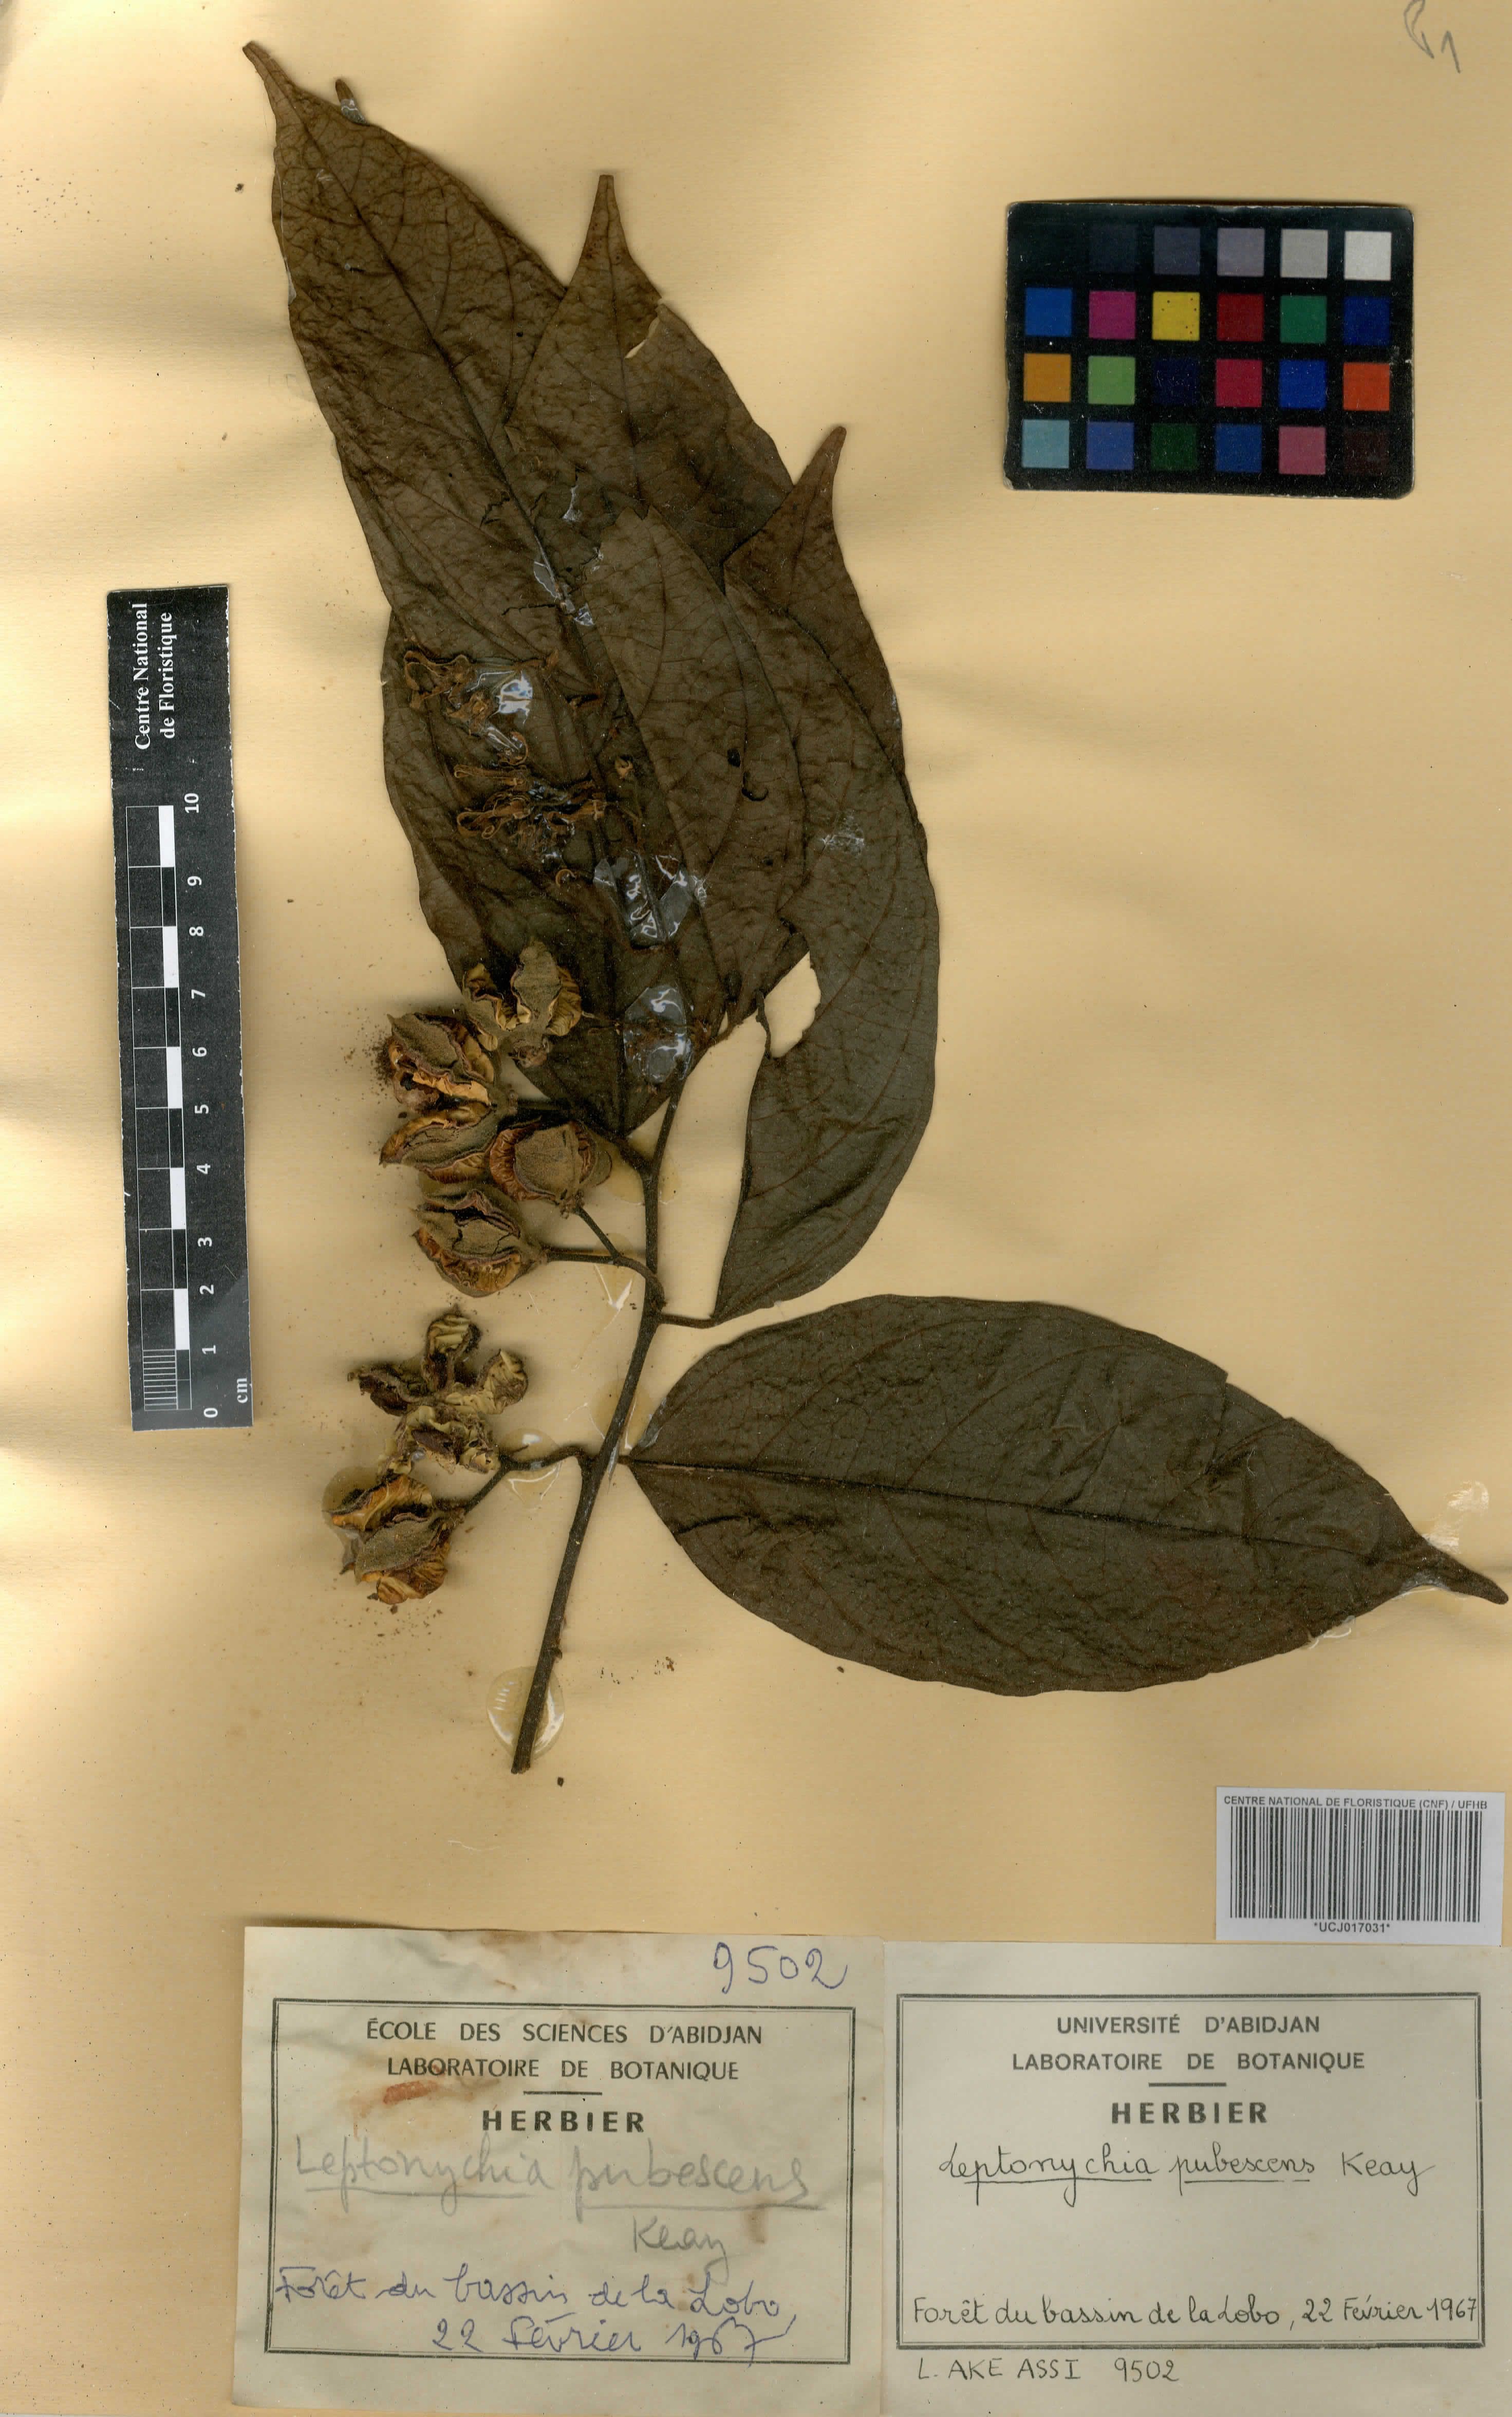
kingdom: Plantae
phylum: Tracheophyta
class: Magnoliopsida
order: Malvales
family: Malvaceae
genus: Leptonychia
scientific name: Leptonychia pubescens
